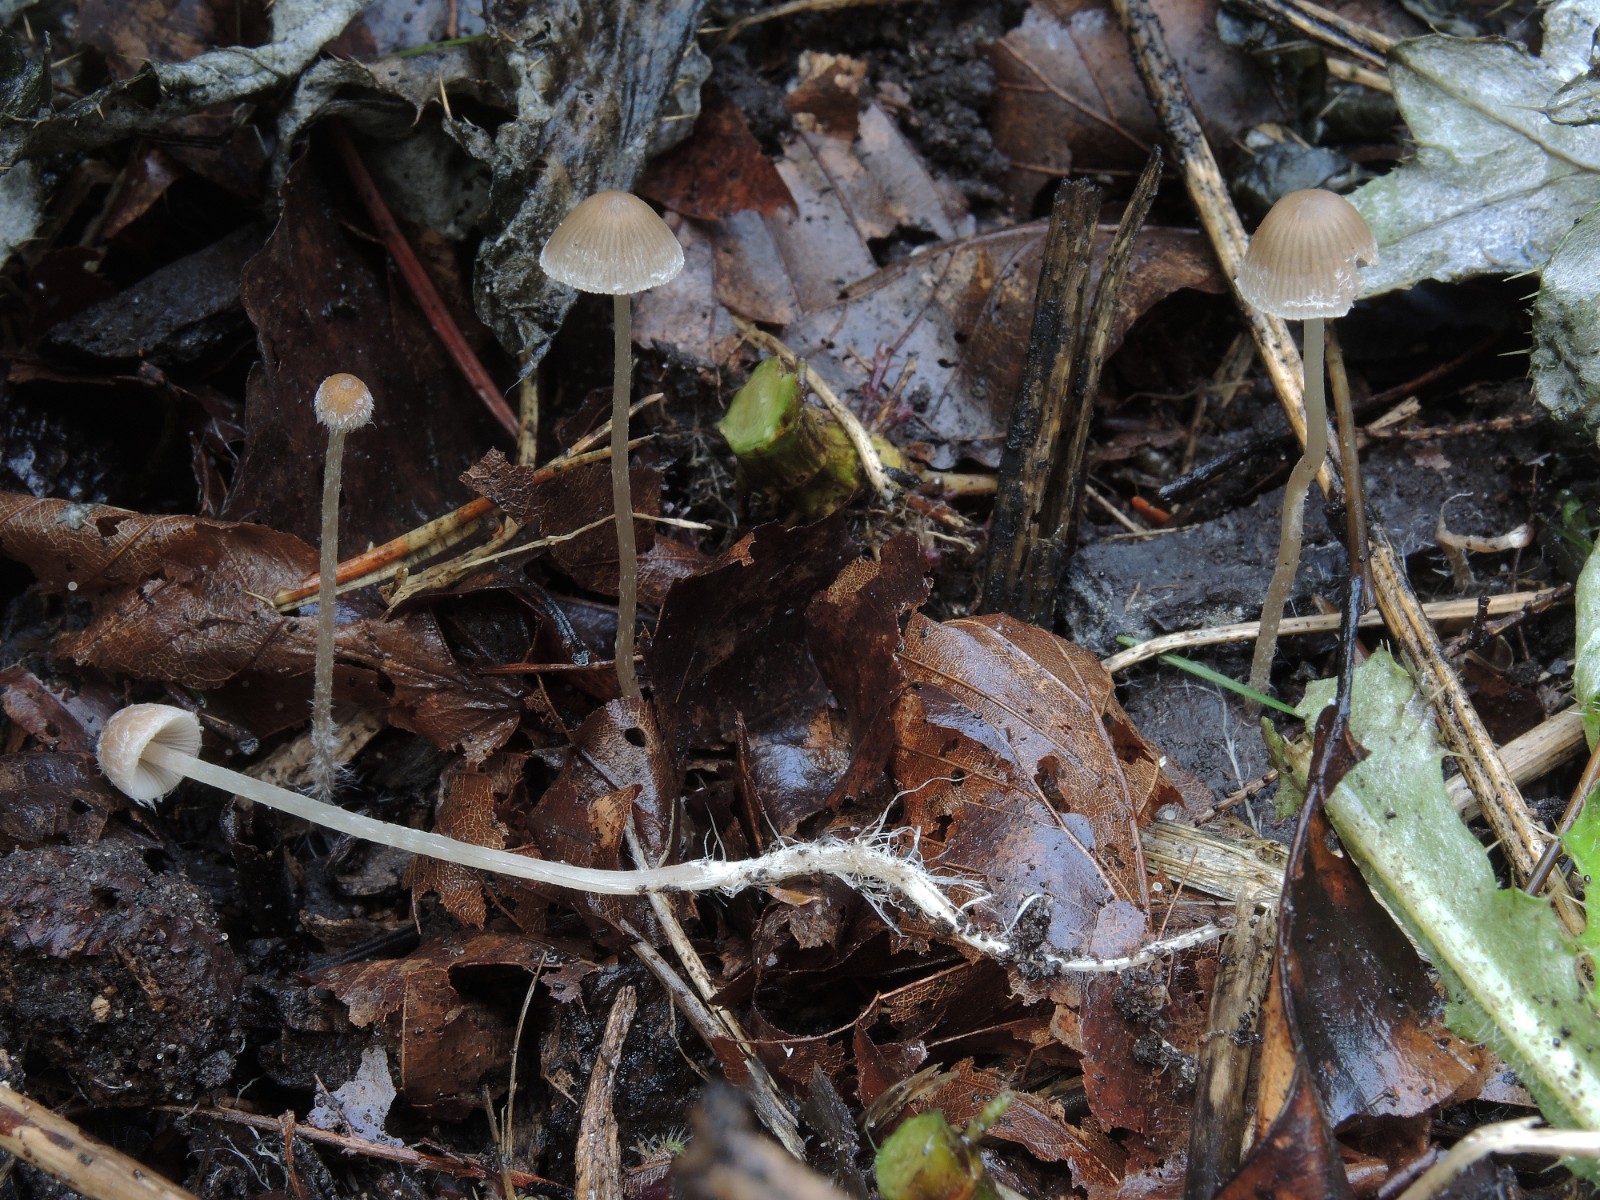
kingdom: Fungi
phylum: Basidiomycota
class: Agaricomycetes
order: Agaricales
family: Psathyrellaceae
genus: Psathyrella
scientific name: Psathyrella orbicularis
